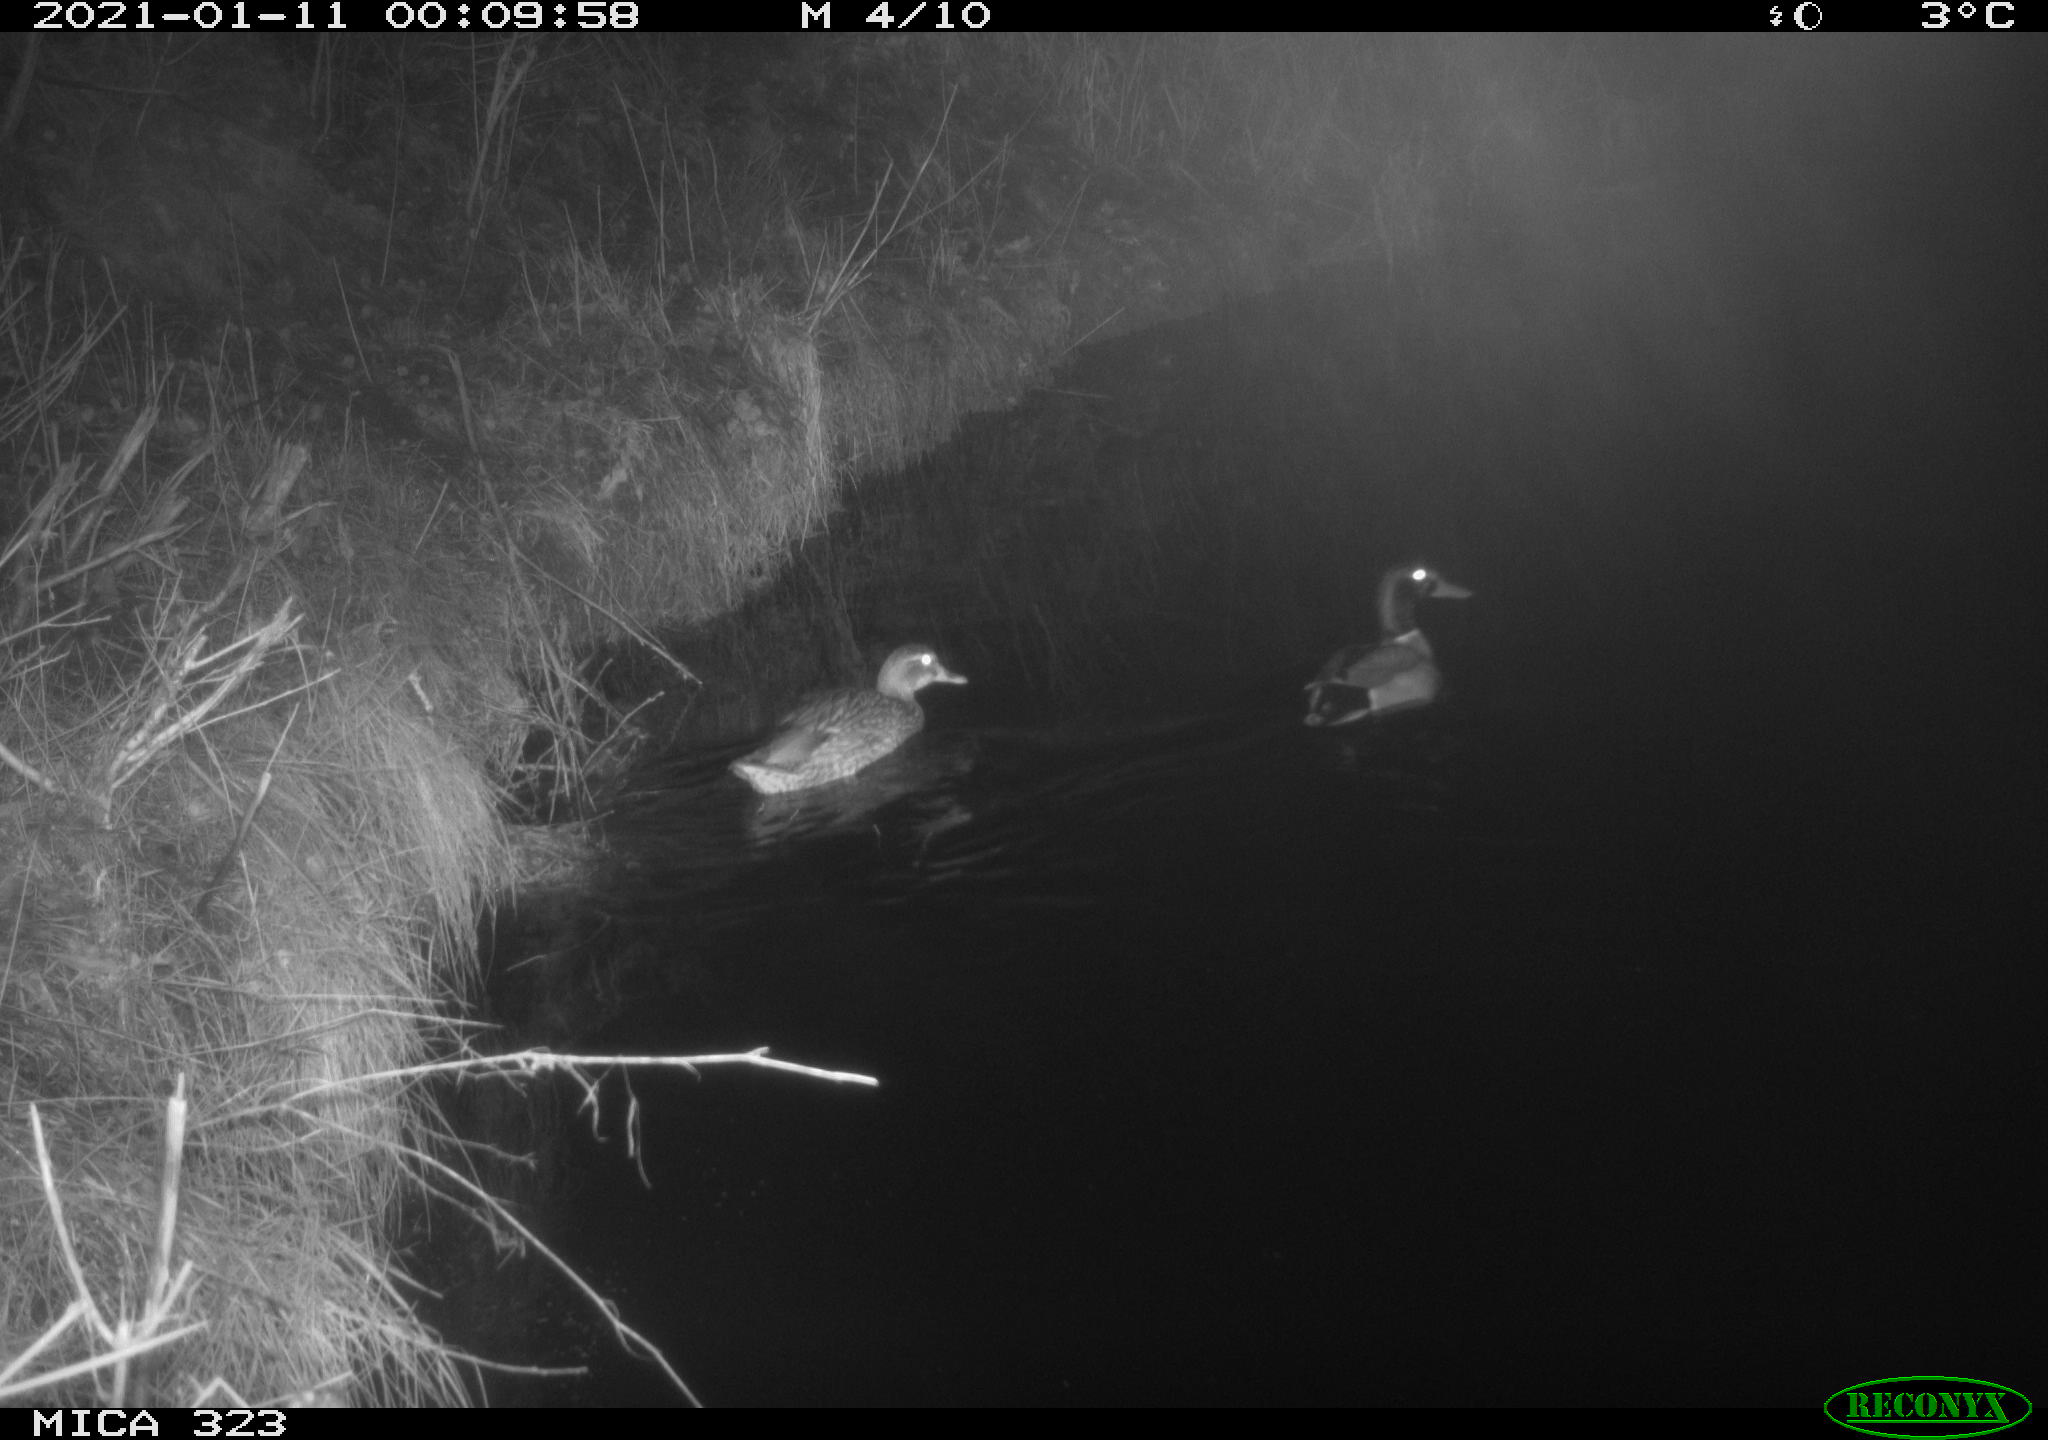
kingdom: Animalia
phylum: Chordata
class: Aves
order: Anseriformes
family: Anatidae
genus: Anas
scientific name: Anas platyrhynchos
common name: Mallard
